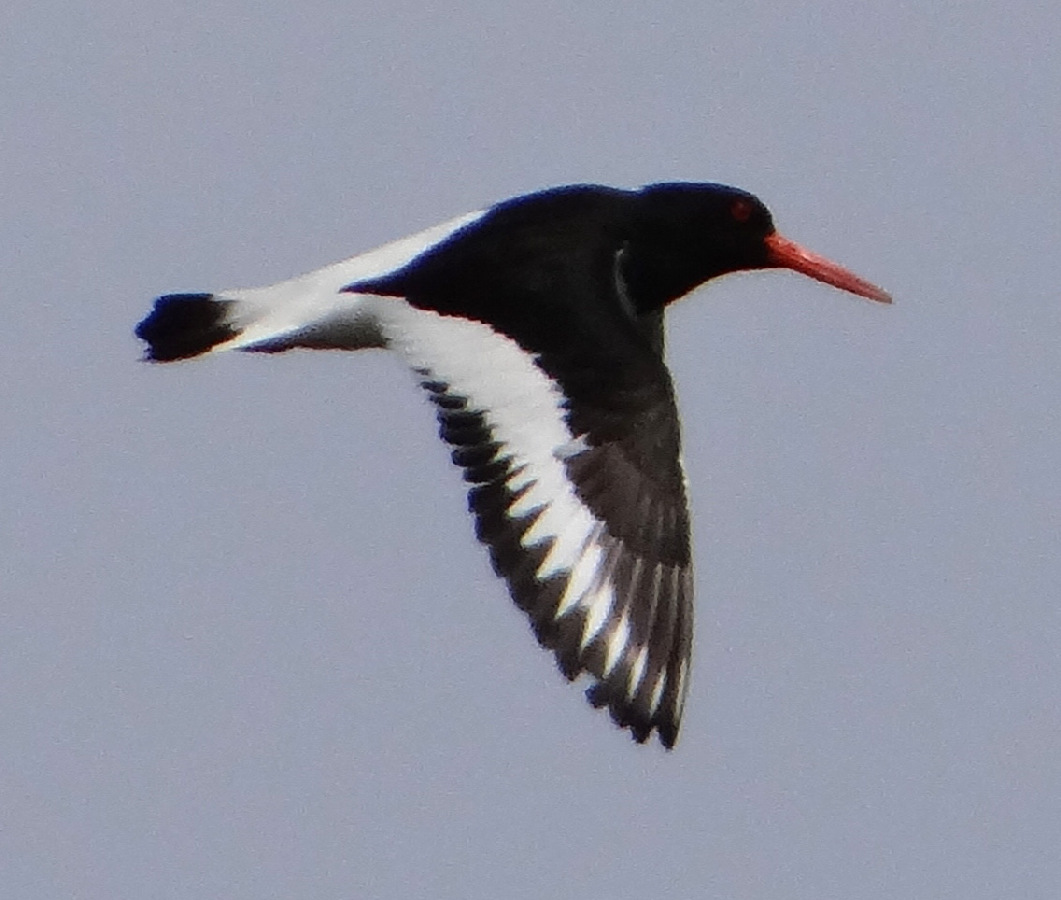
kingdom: Animalia
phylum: Chordata
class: Aves
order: Charadriiformes
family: Haematopodidae
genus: Haematopus
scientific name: Haematopus ostralegus
